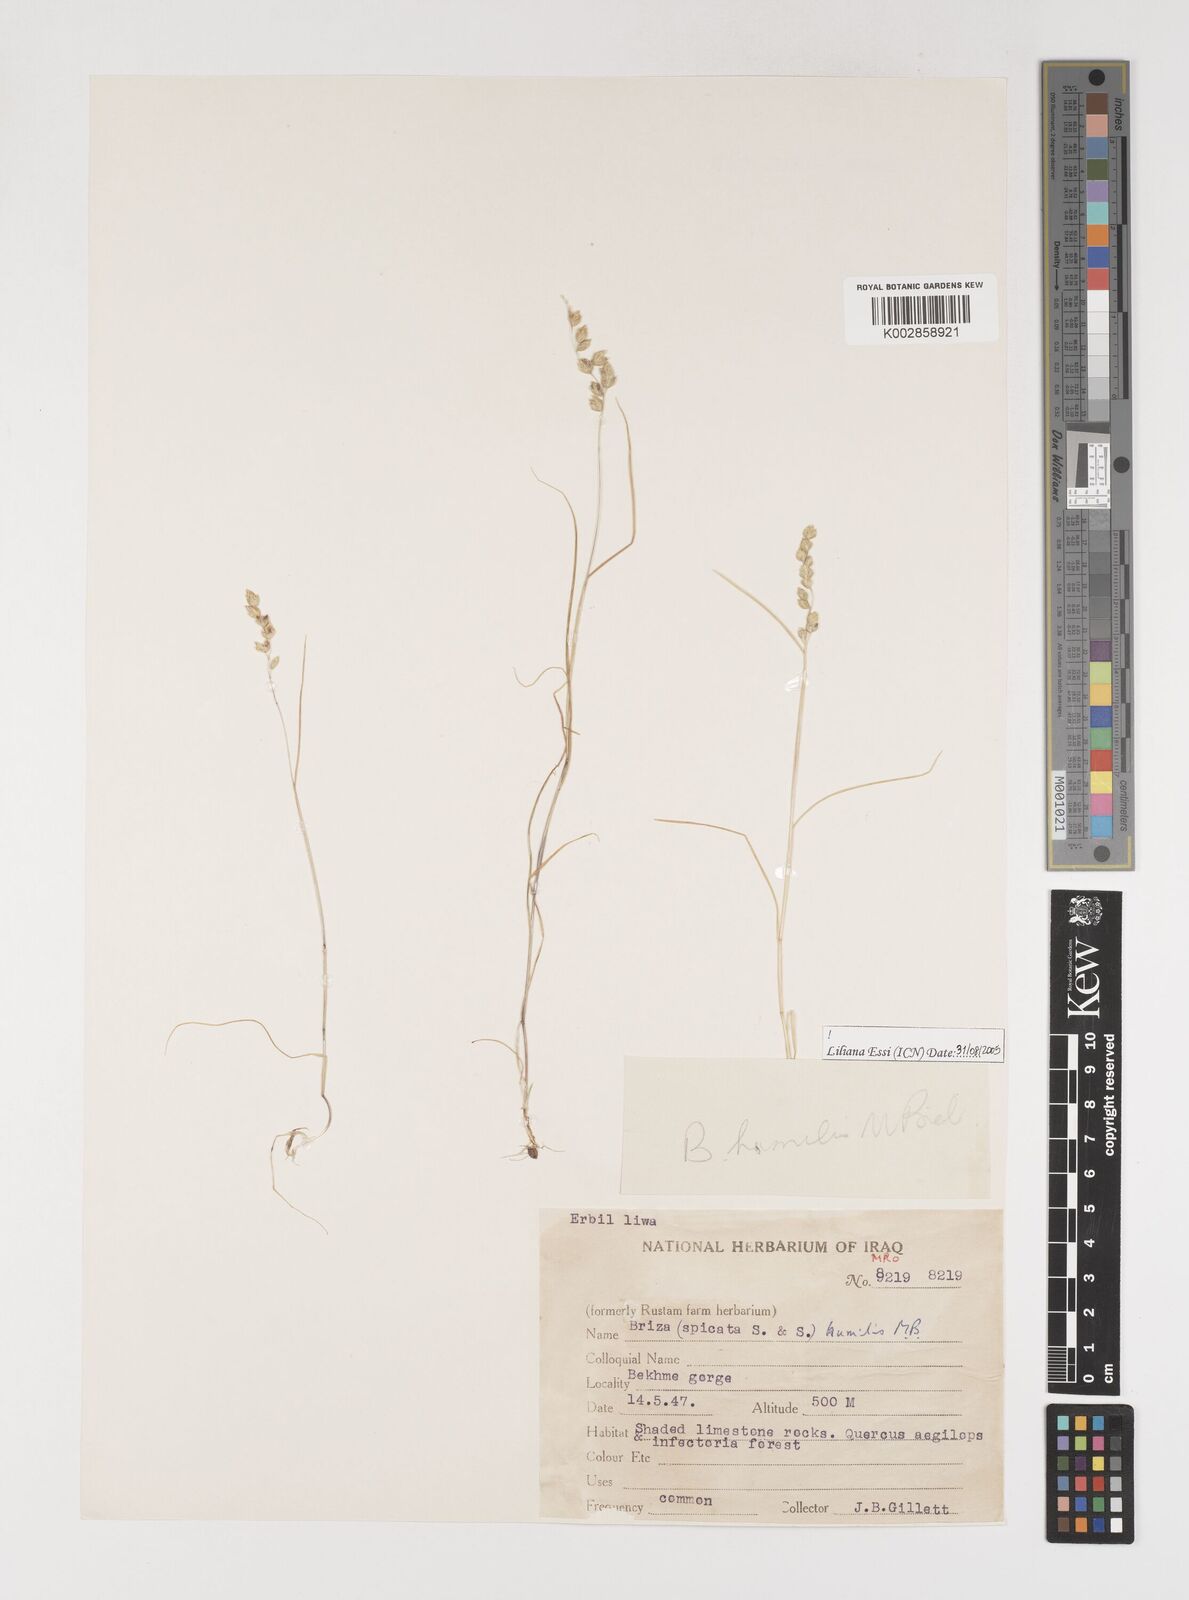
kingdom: Plantae
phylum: Tracheophyta
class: Liliopsida
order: Poales
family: Poaceae
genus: Briza
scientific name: Briza humilis
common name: Spiked quaking grass
